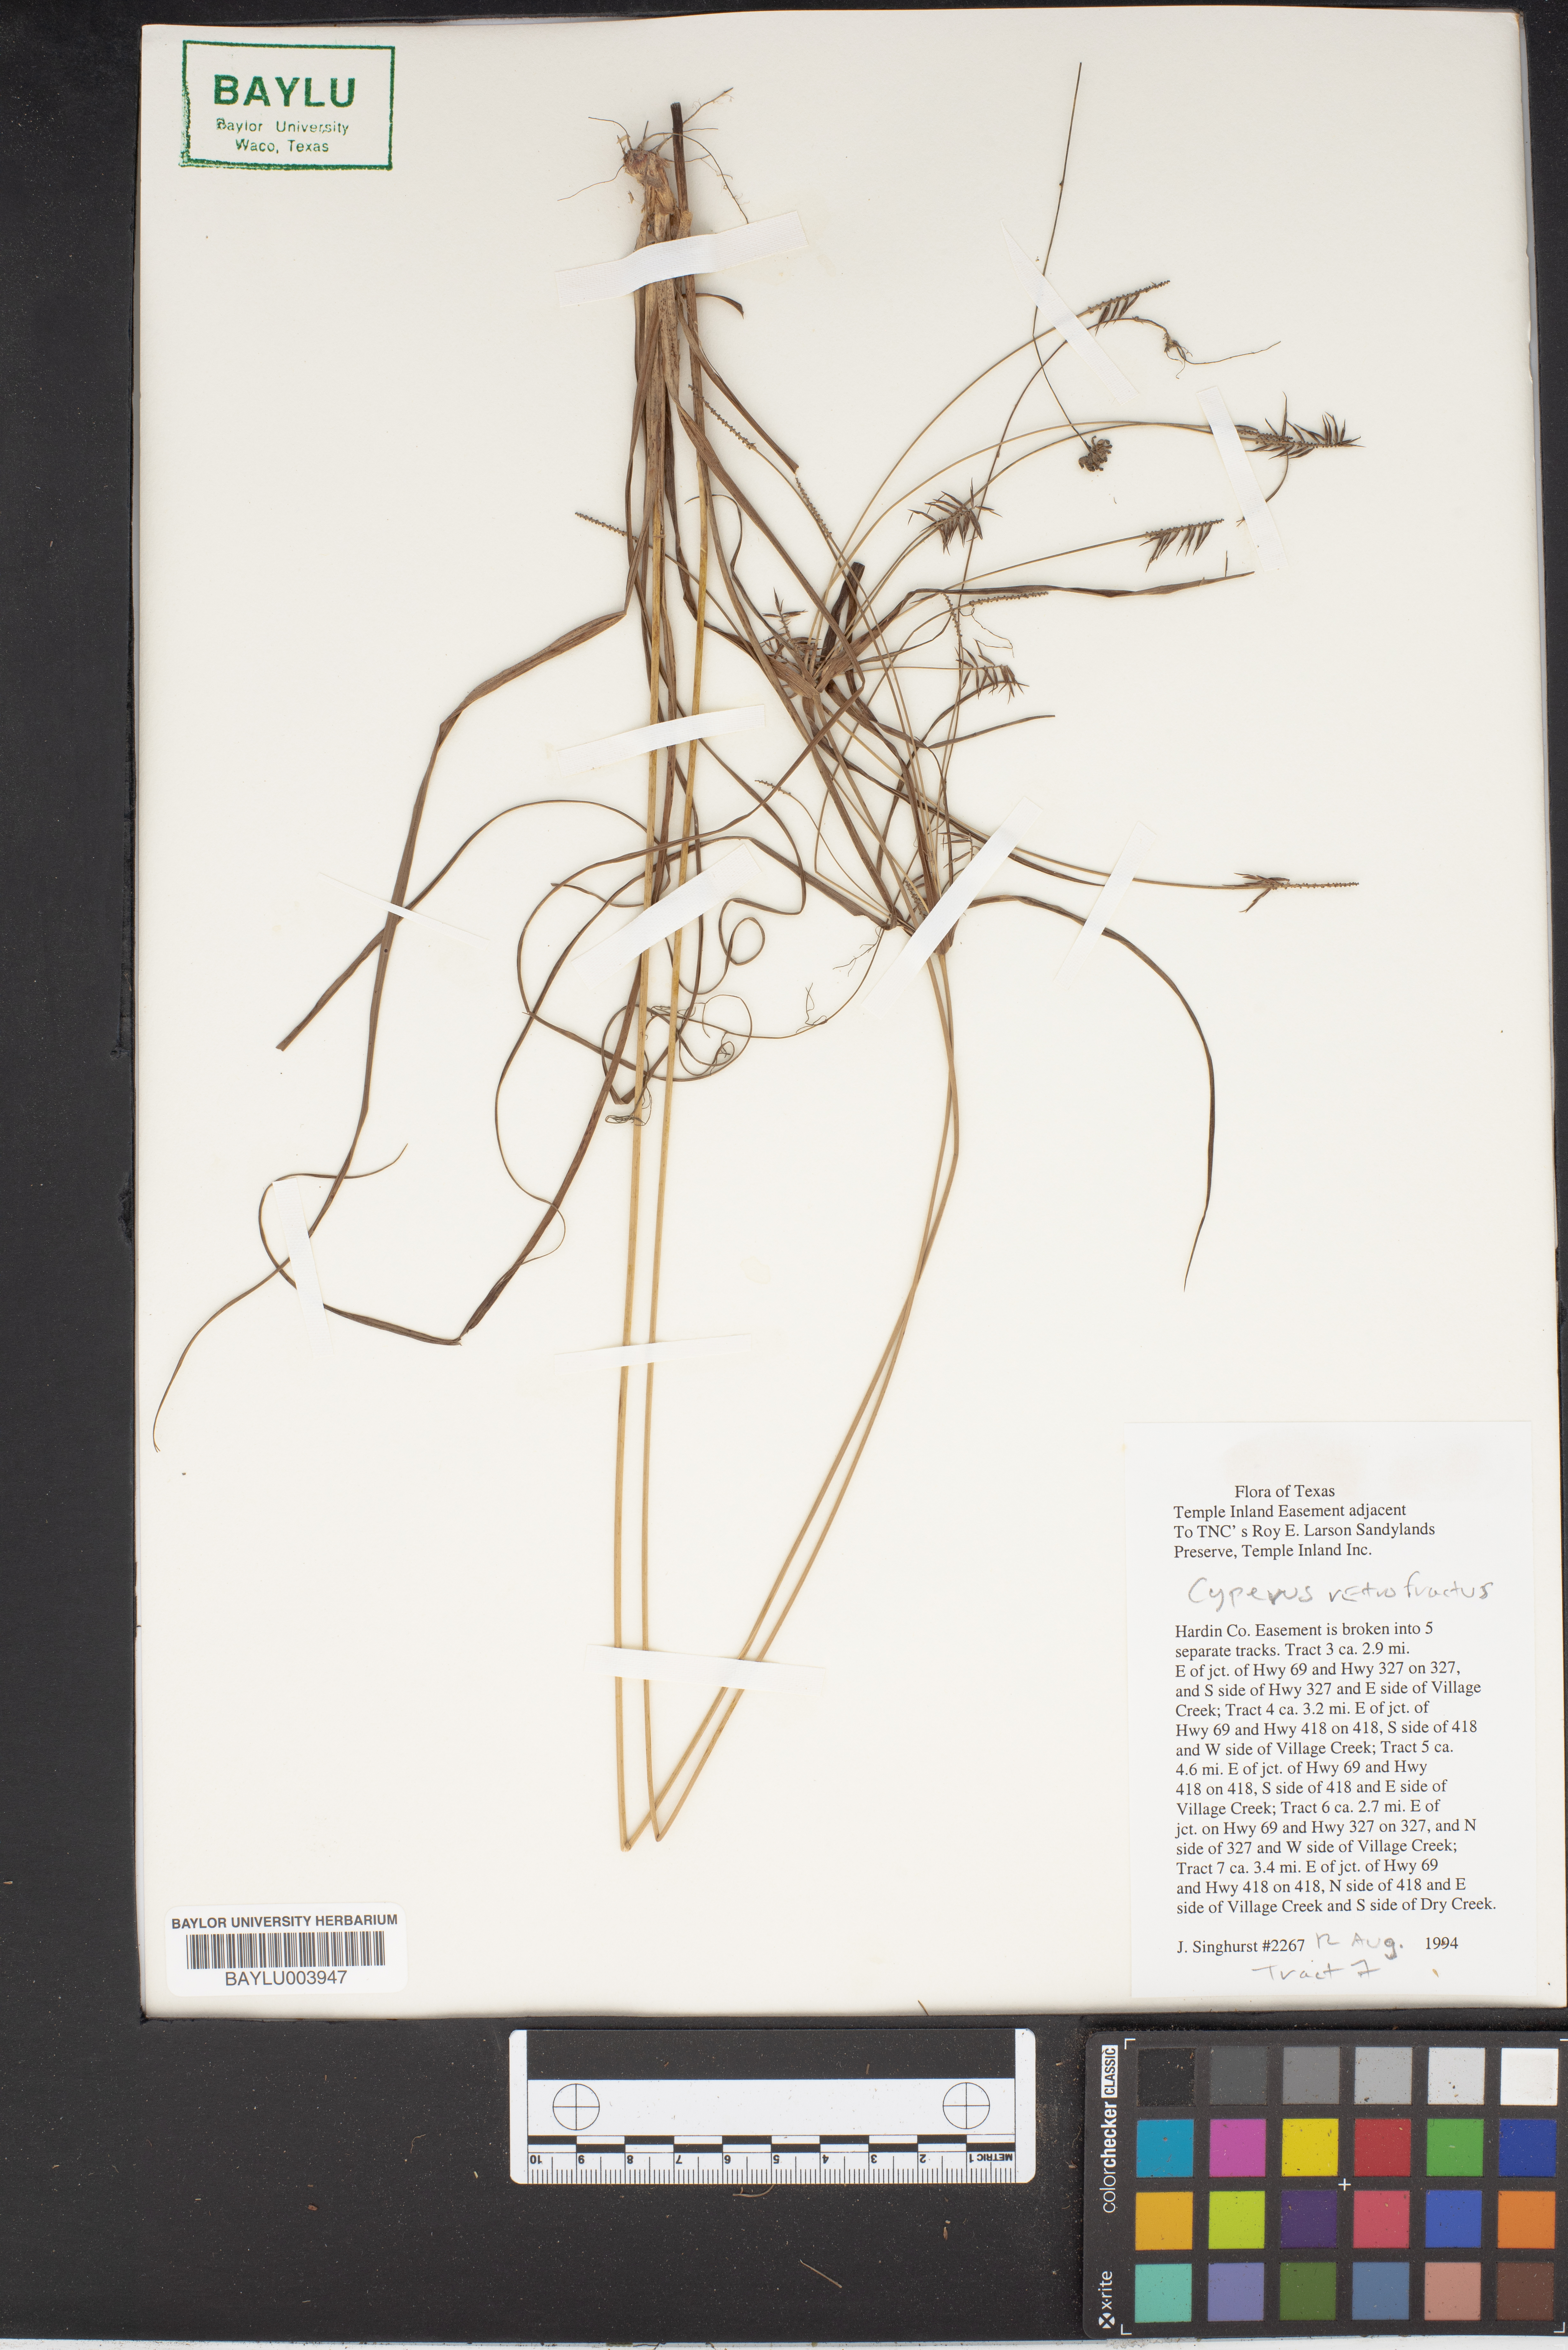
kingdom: Plantae
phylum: Tracheophyta
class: Liliopsida
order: Poales
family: Cyperaceae
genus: Cyperus
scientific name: Cyperus retrofractus
